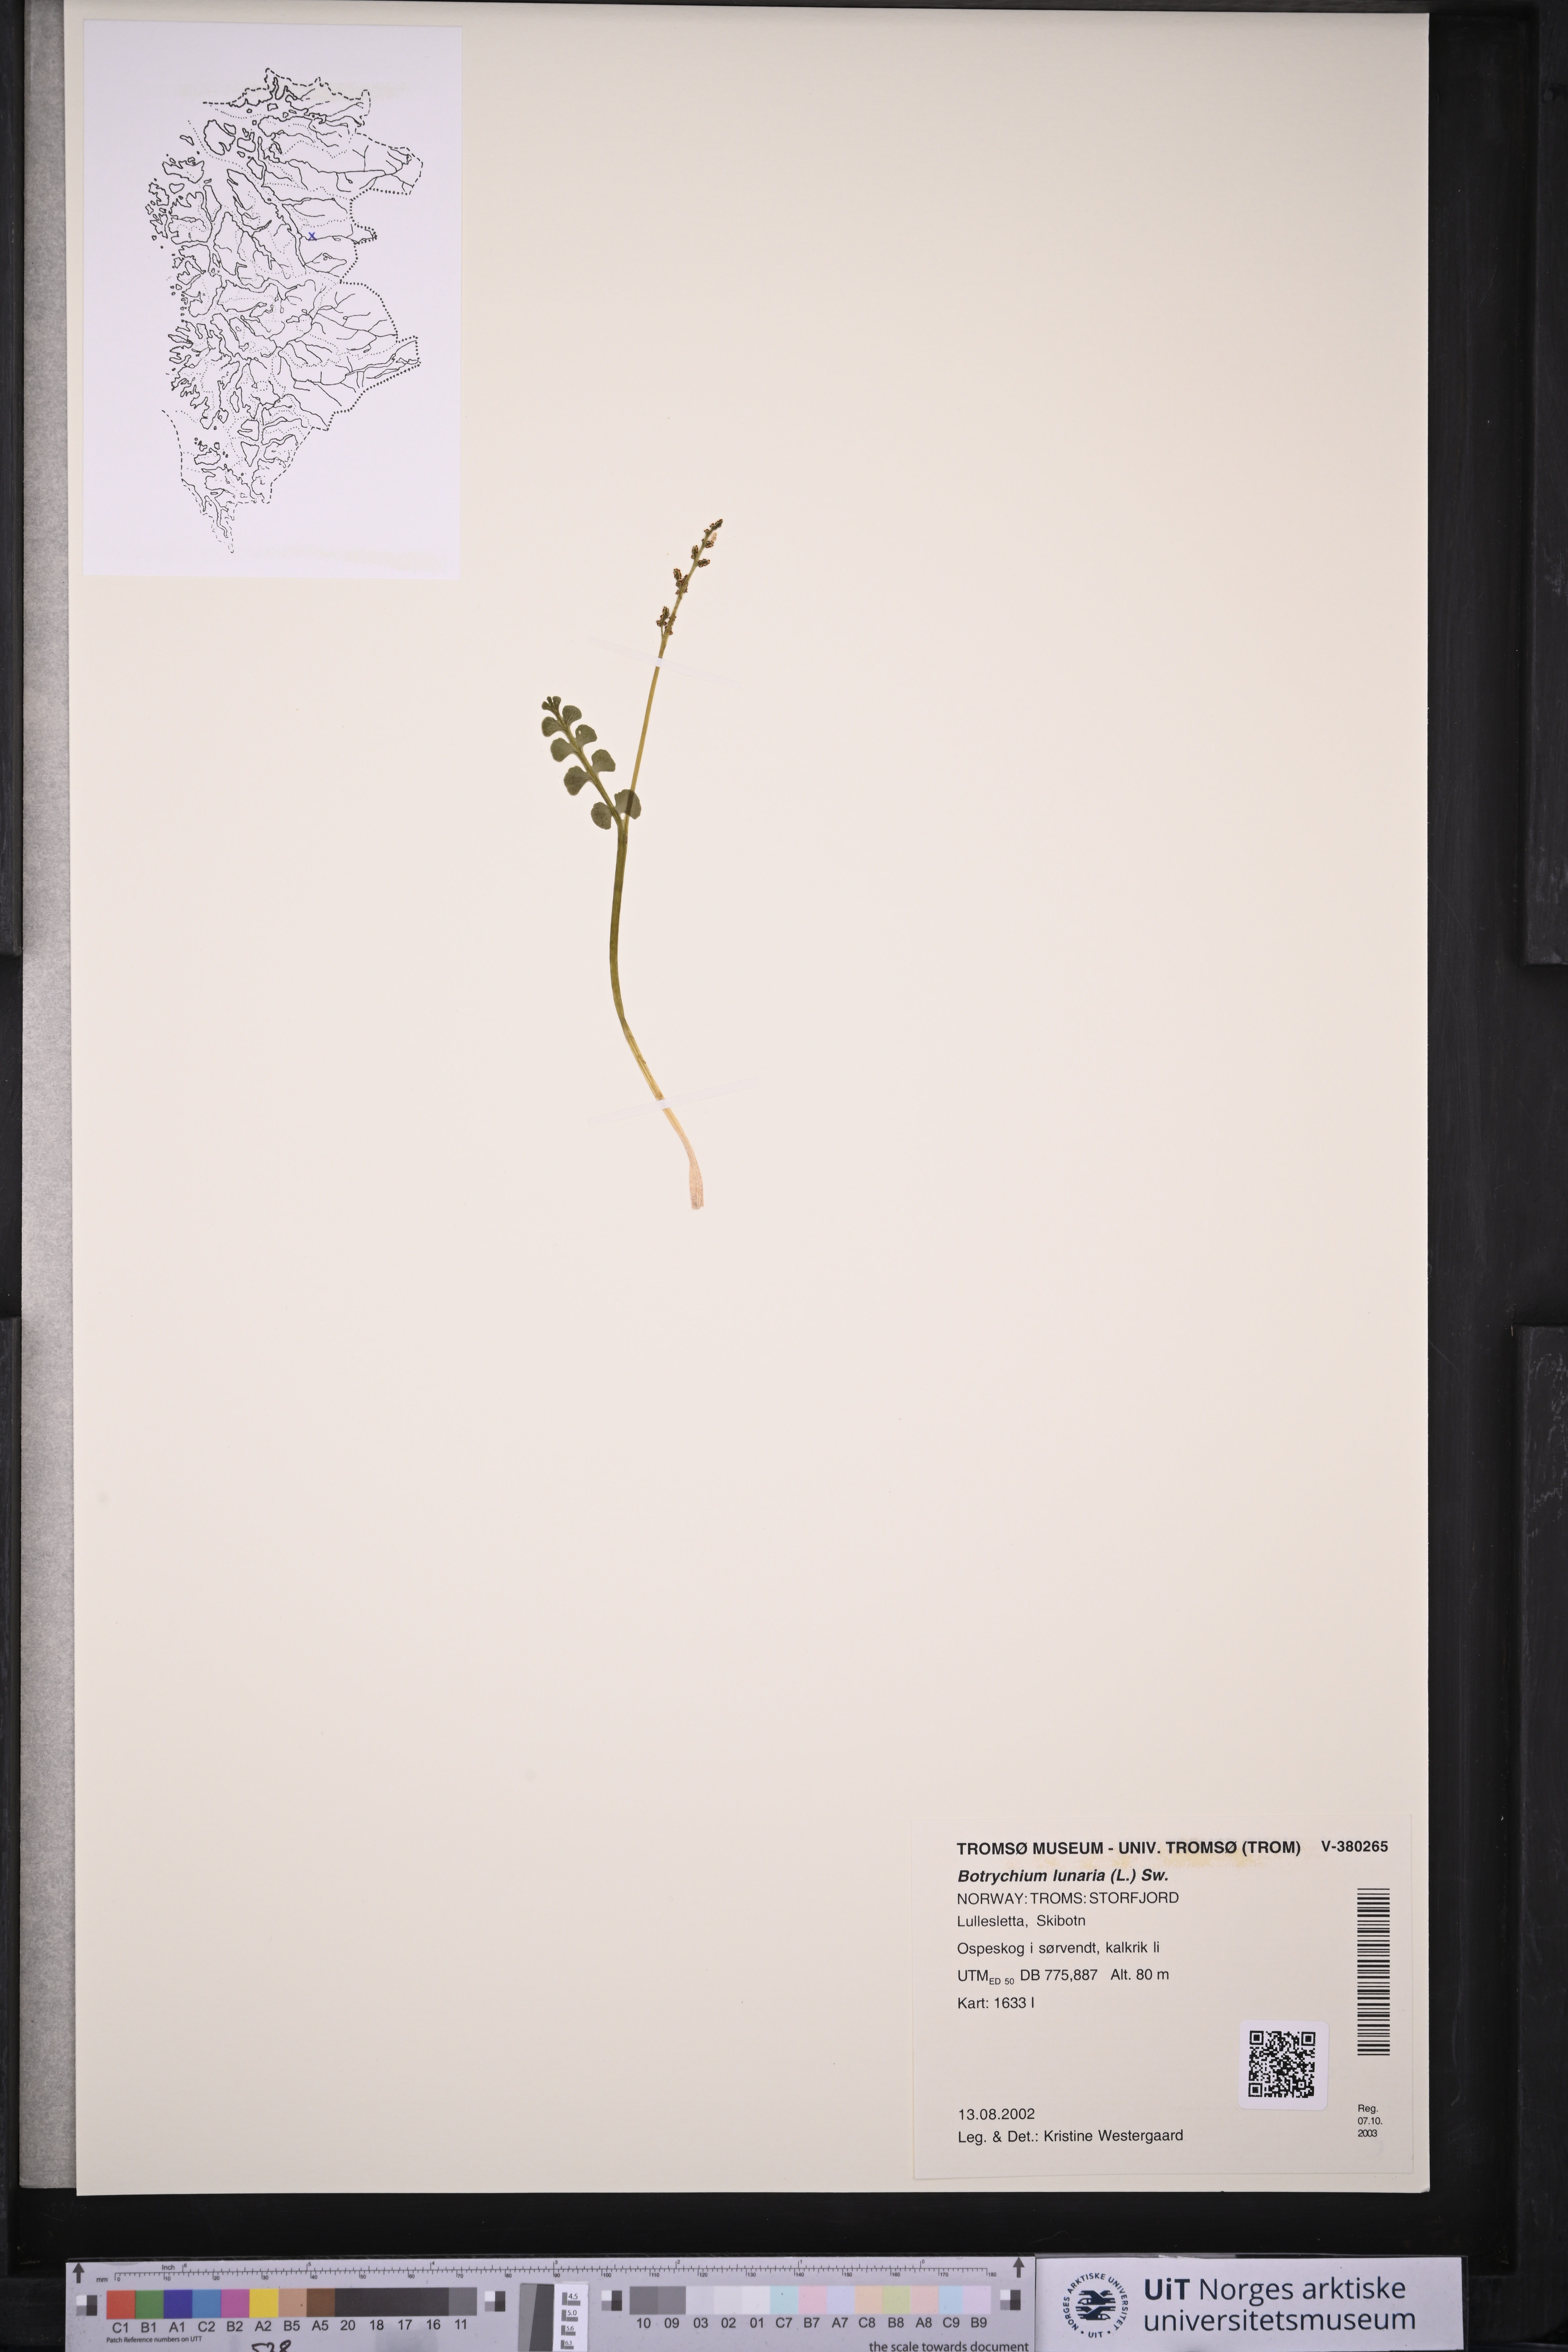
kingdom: Plantae
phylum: Tracheophyta
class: Polypodiopsida
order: Ophioglossales
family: Ophioglossaceae
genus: Botrychium
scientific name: Botrychium lunaria
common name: Moonwort
